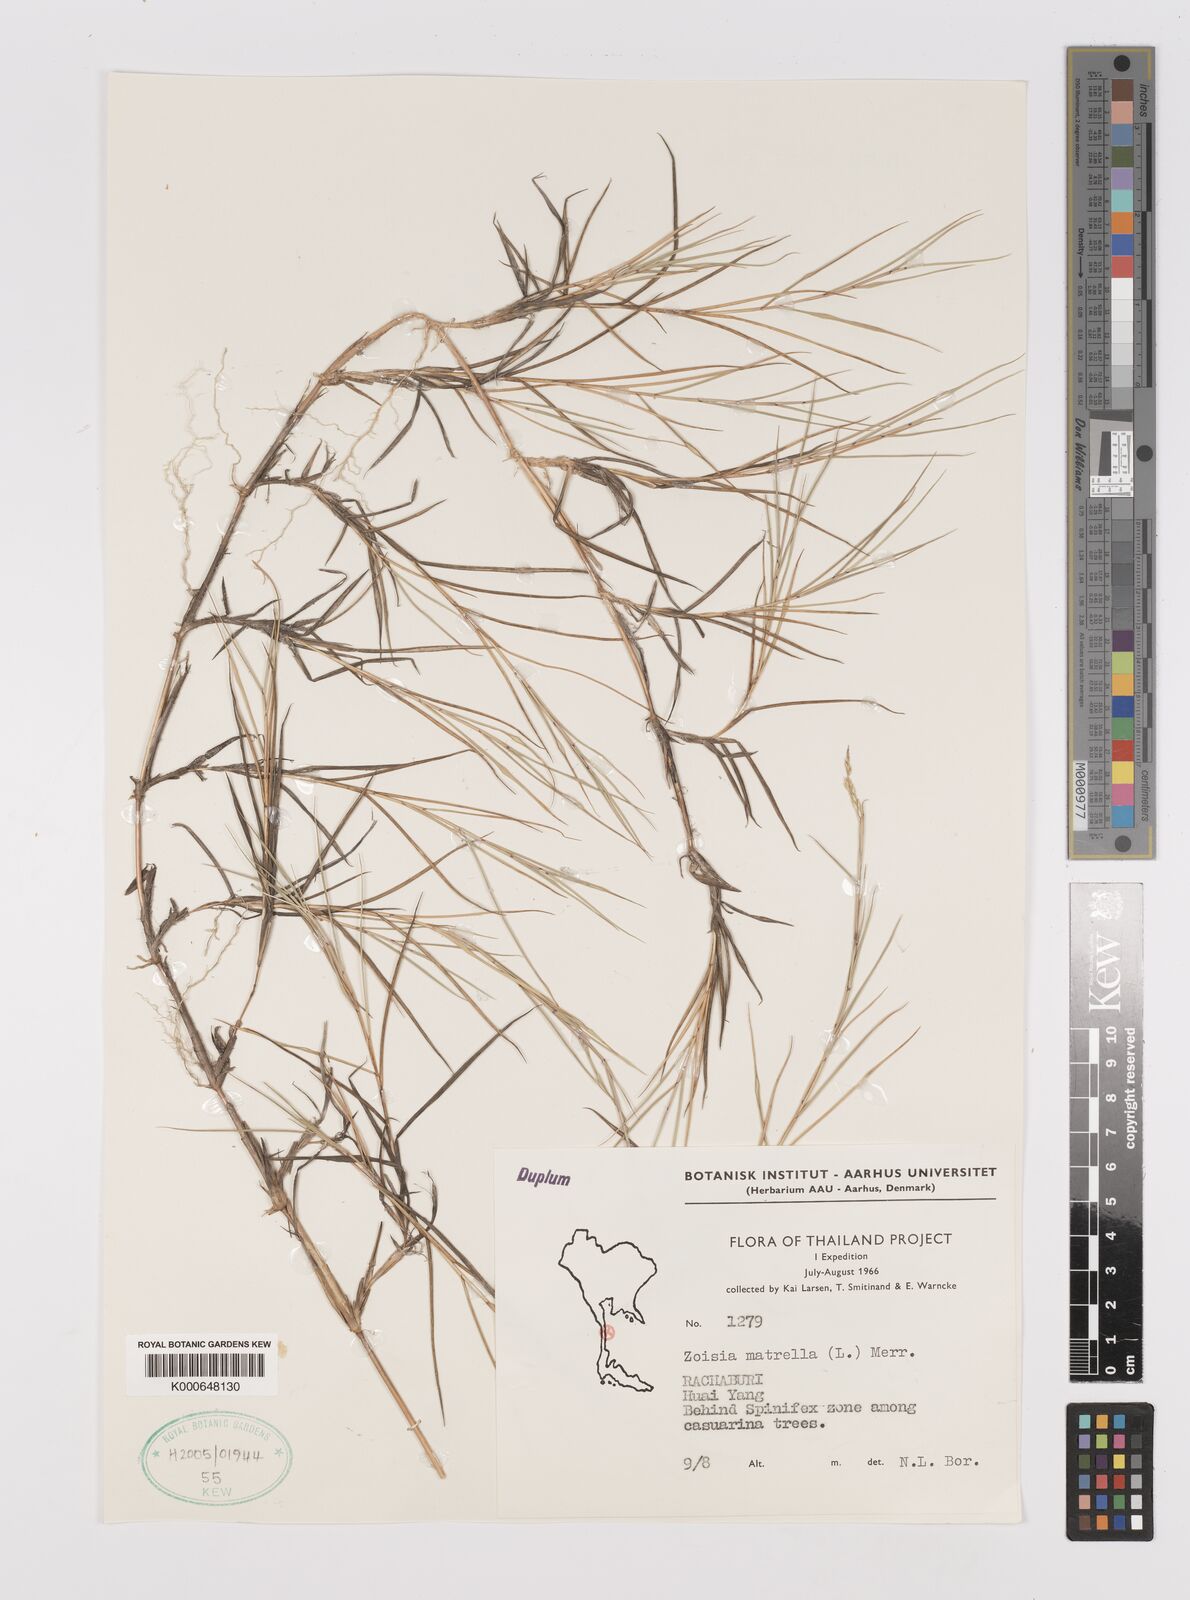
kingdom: Plantae
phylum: Tracheophyta
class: Liliopsida
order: Poales
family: Poaceae
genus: Zoysia
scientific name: Zoysia matrella
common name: Manila grass
